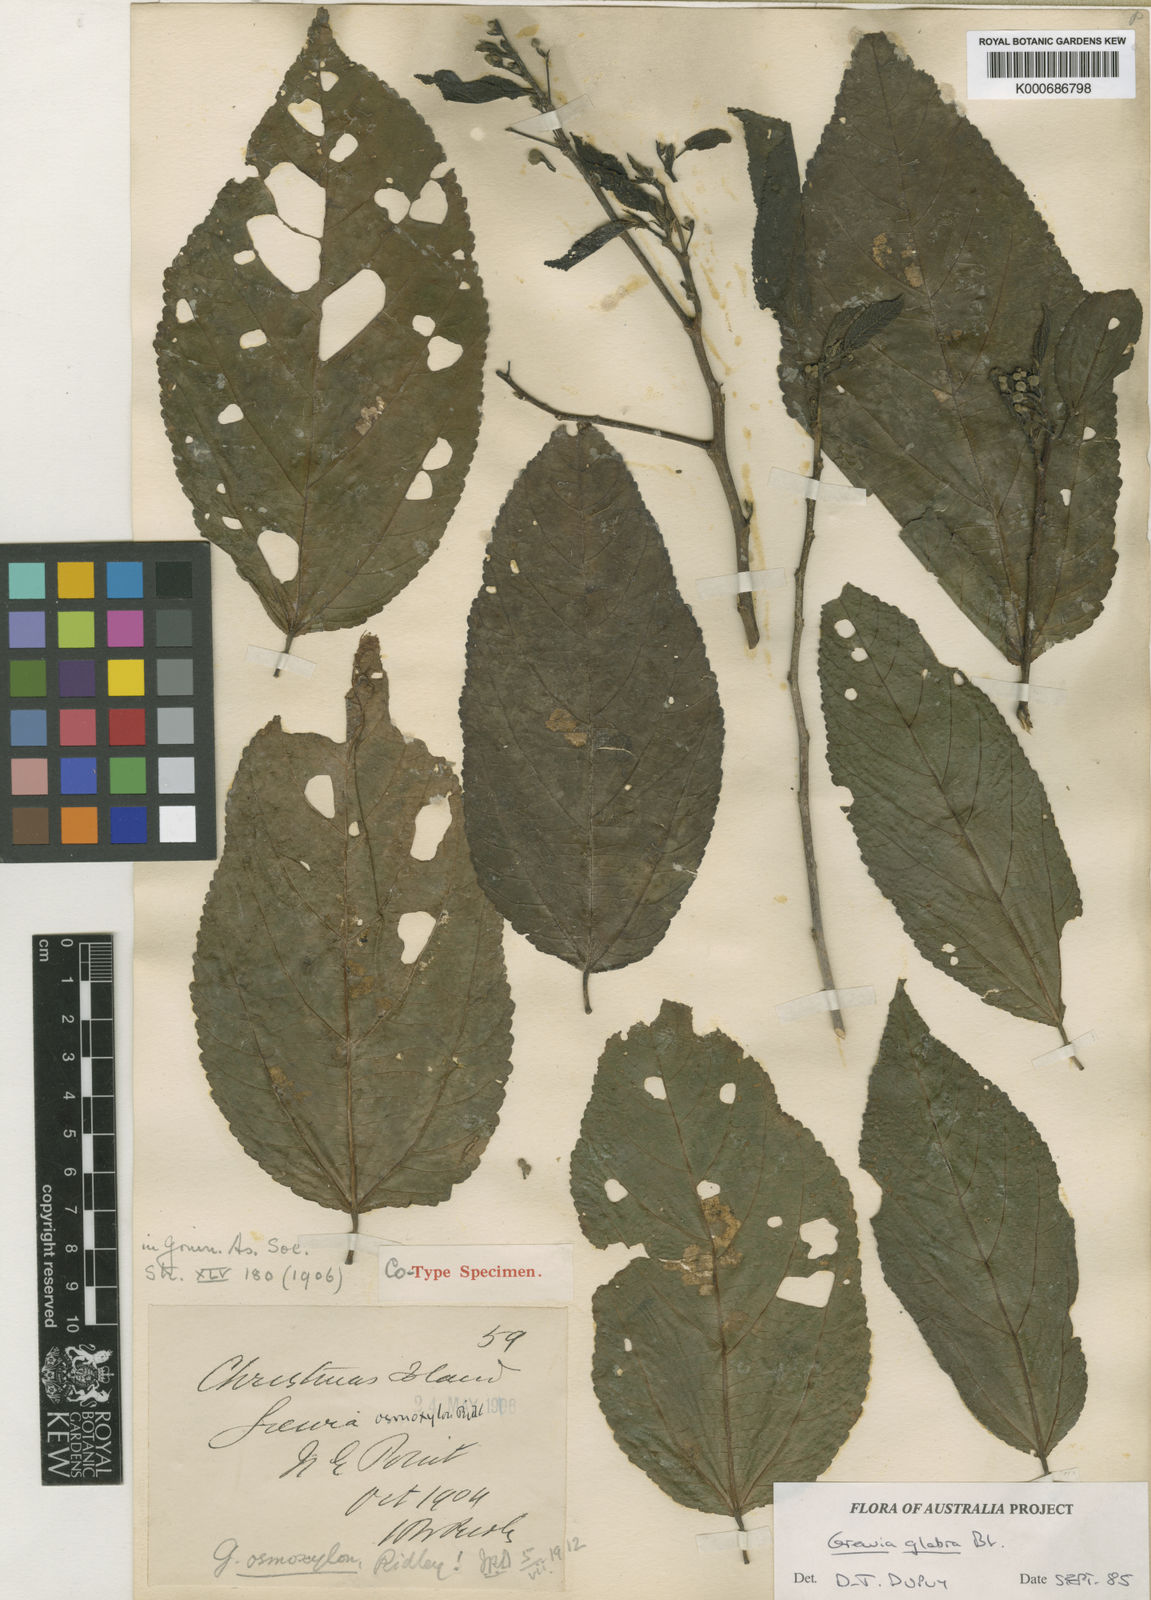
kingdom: Plantae
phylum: Tracheophyta
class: Magnoliopsida
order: Malvales
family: Malvaceae
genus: Grewia
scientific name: Grewia guazumifolia
